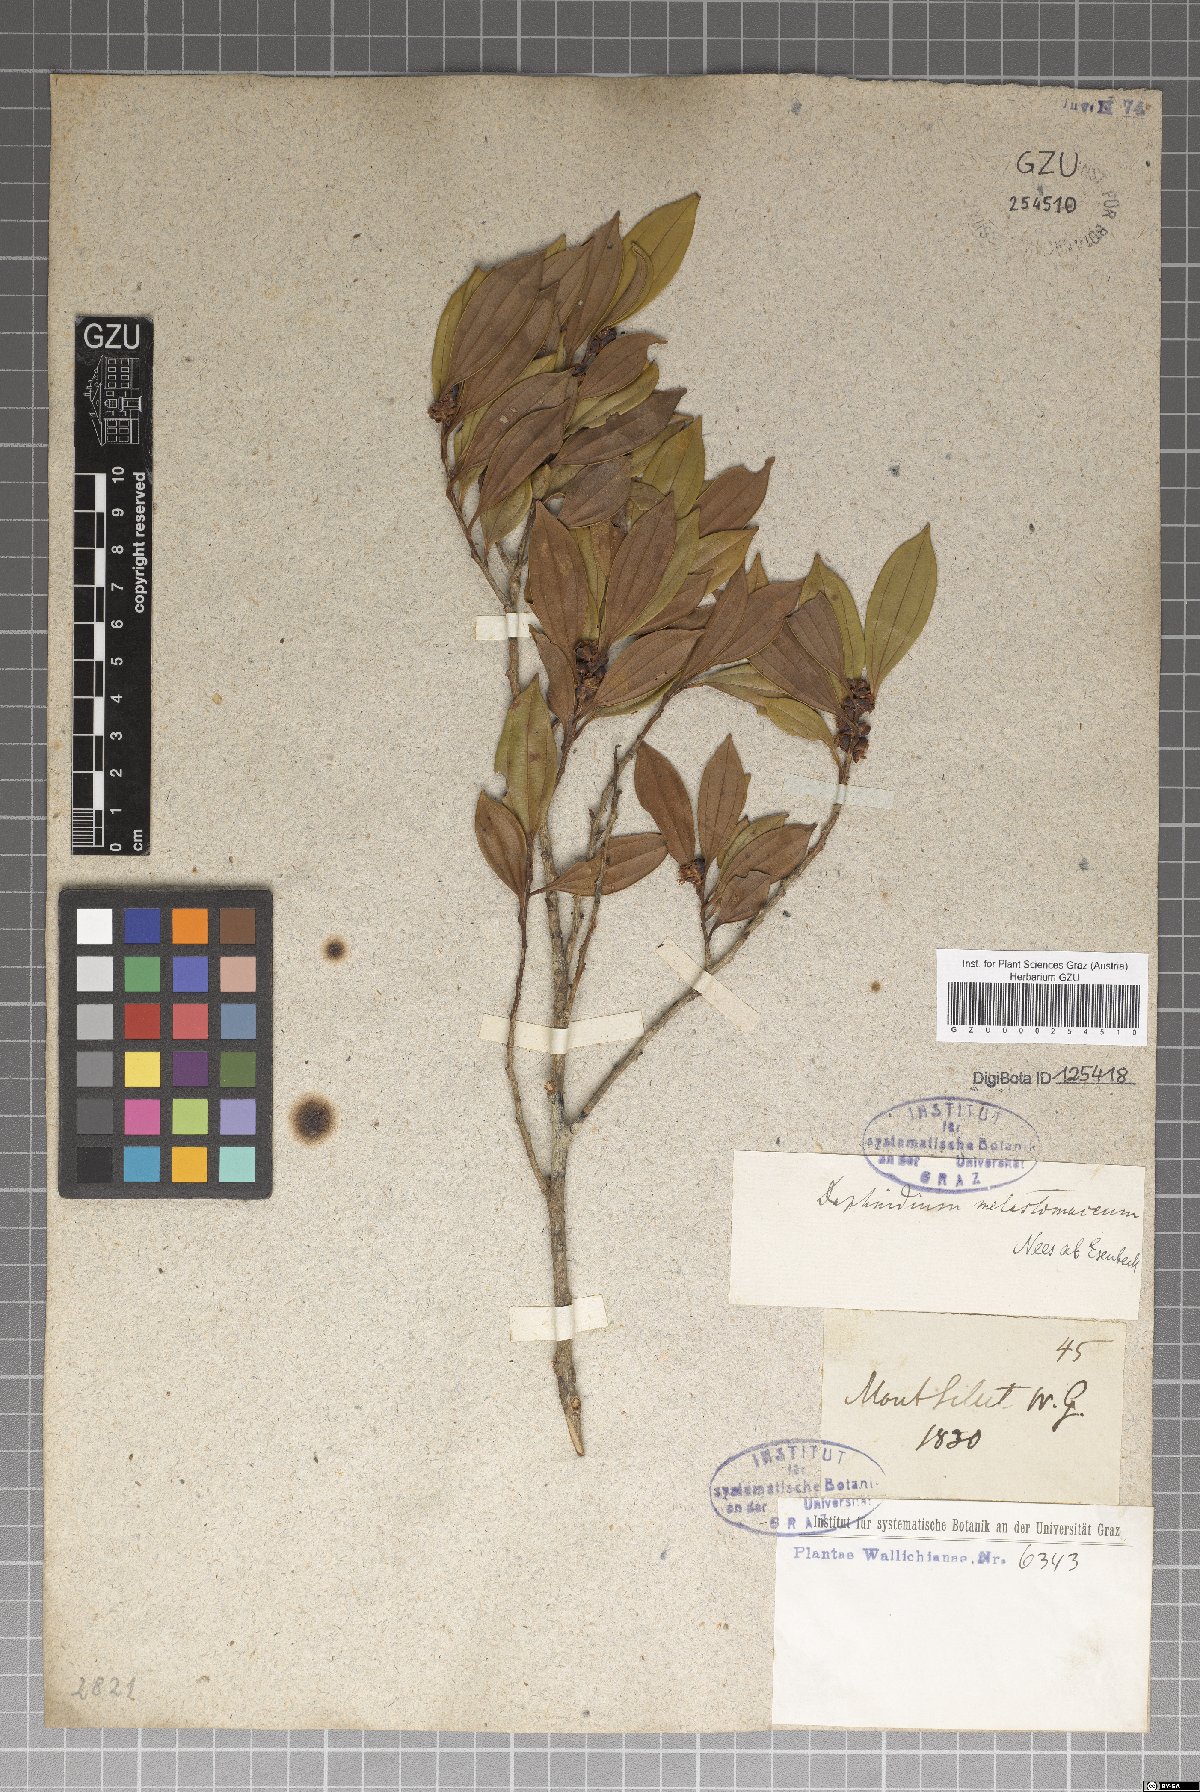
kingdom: Plantae
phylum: Tracheophyta
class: Magnoliopsida
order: Laurales
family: Lauraceae
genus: Lindera
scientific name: Lindera melastomacea
